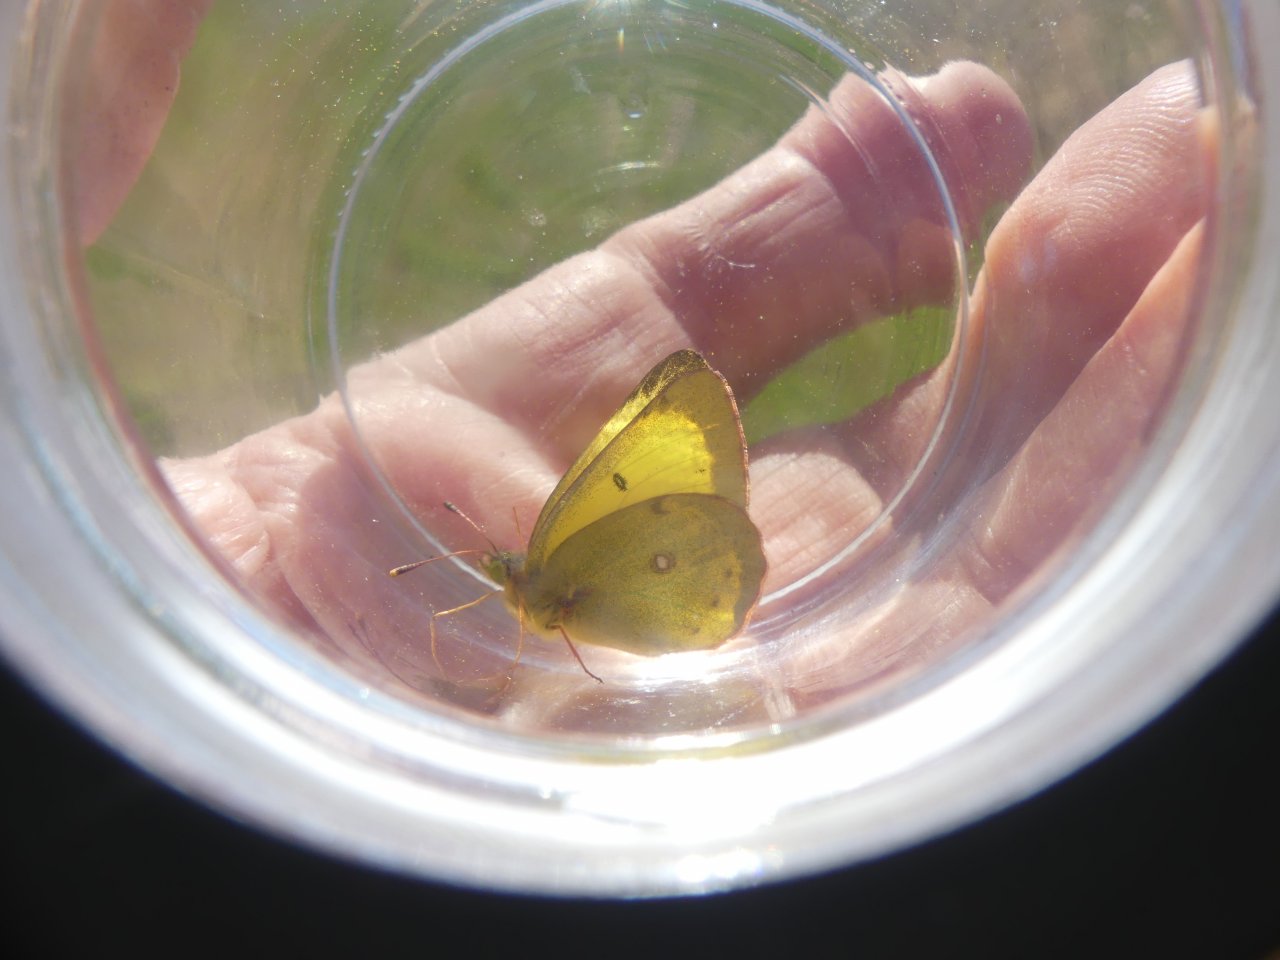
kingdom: Animalia
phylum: Arthropoda
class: Insecta
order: Lepidoptera
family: Pieridae
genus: Colias
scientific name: Colias philodice
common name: Clouded Sulphur
